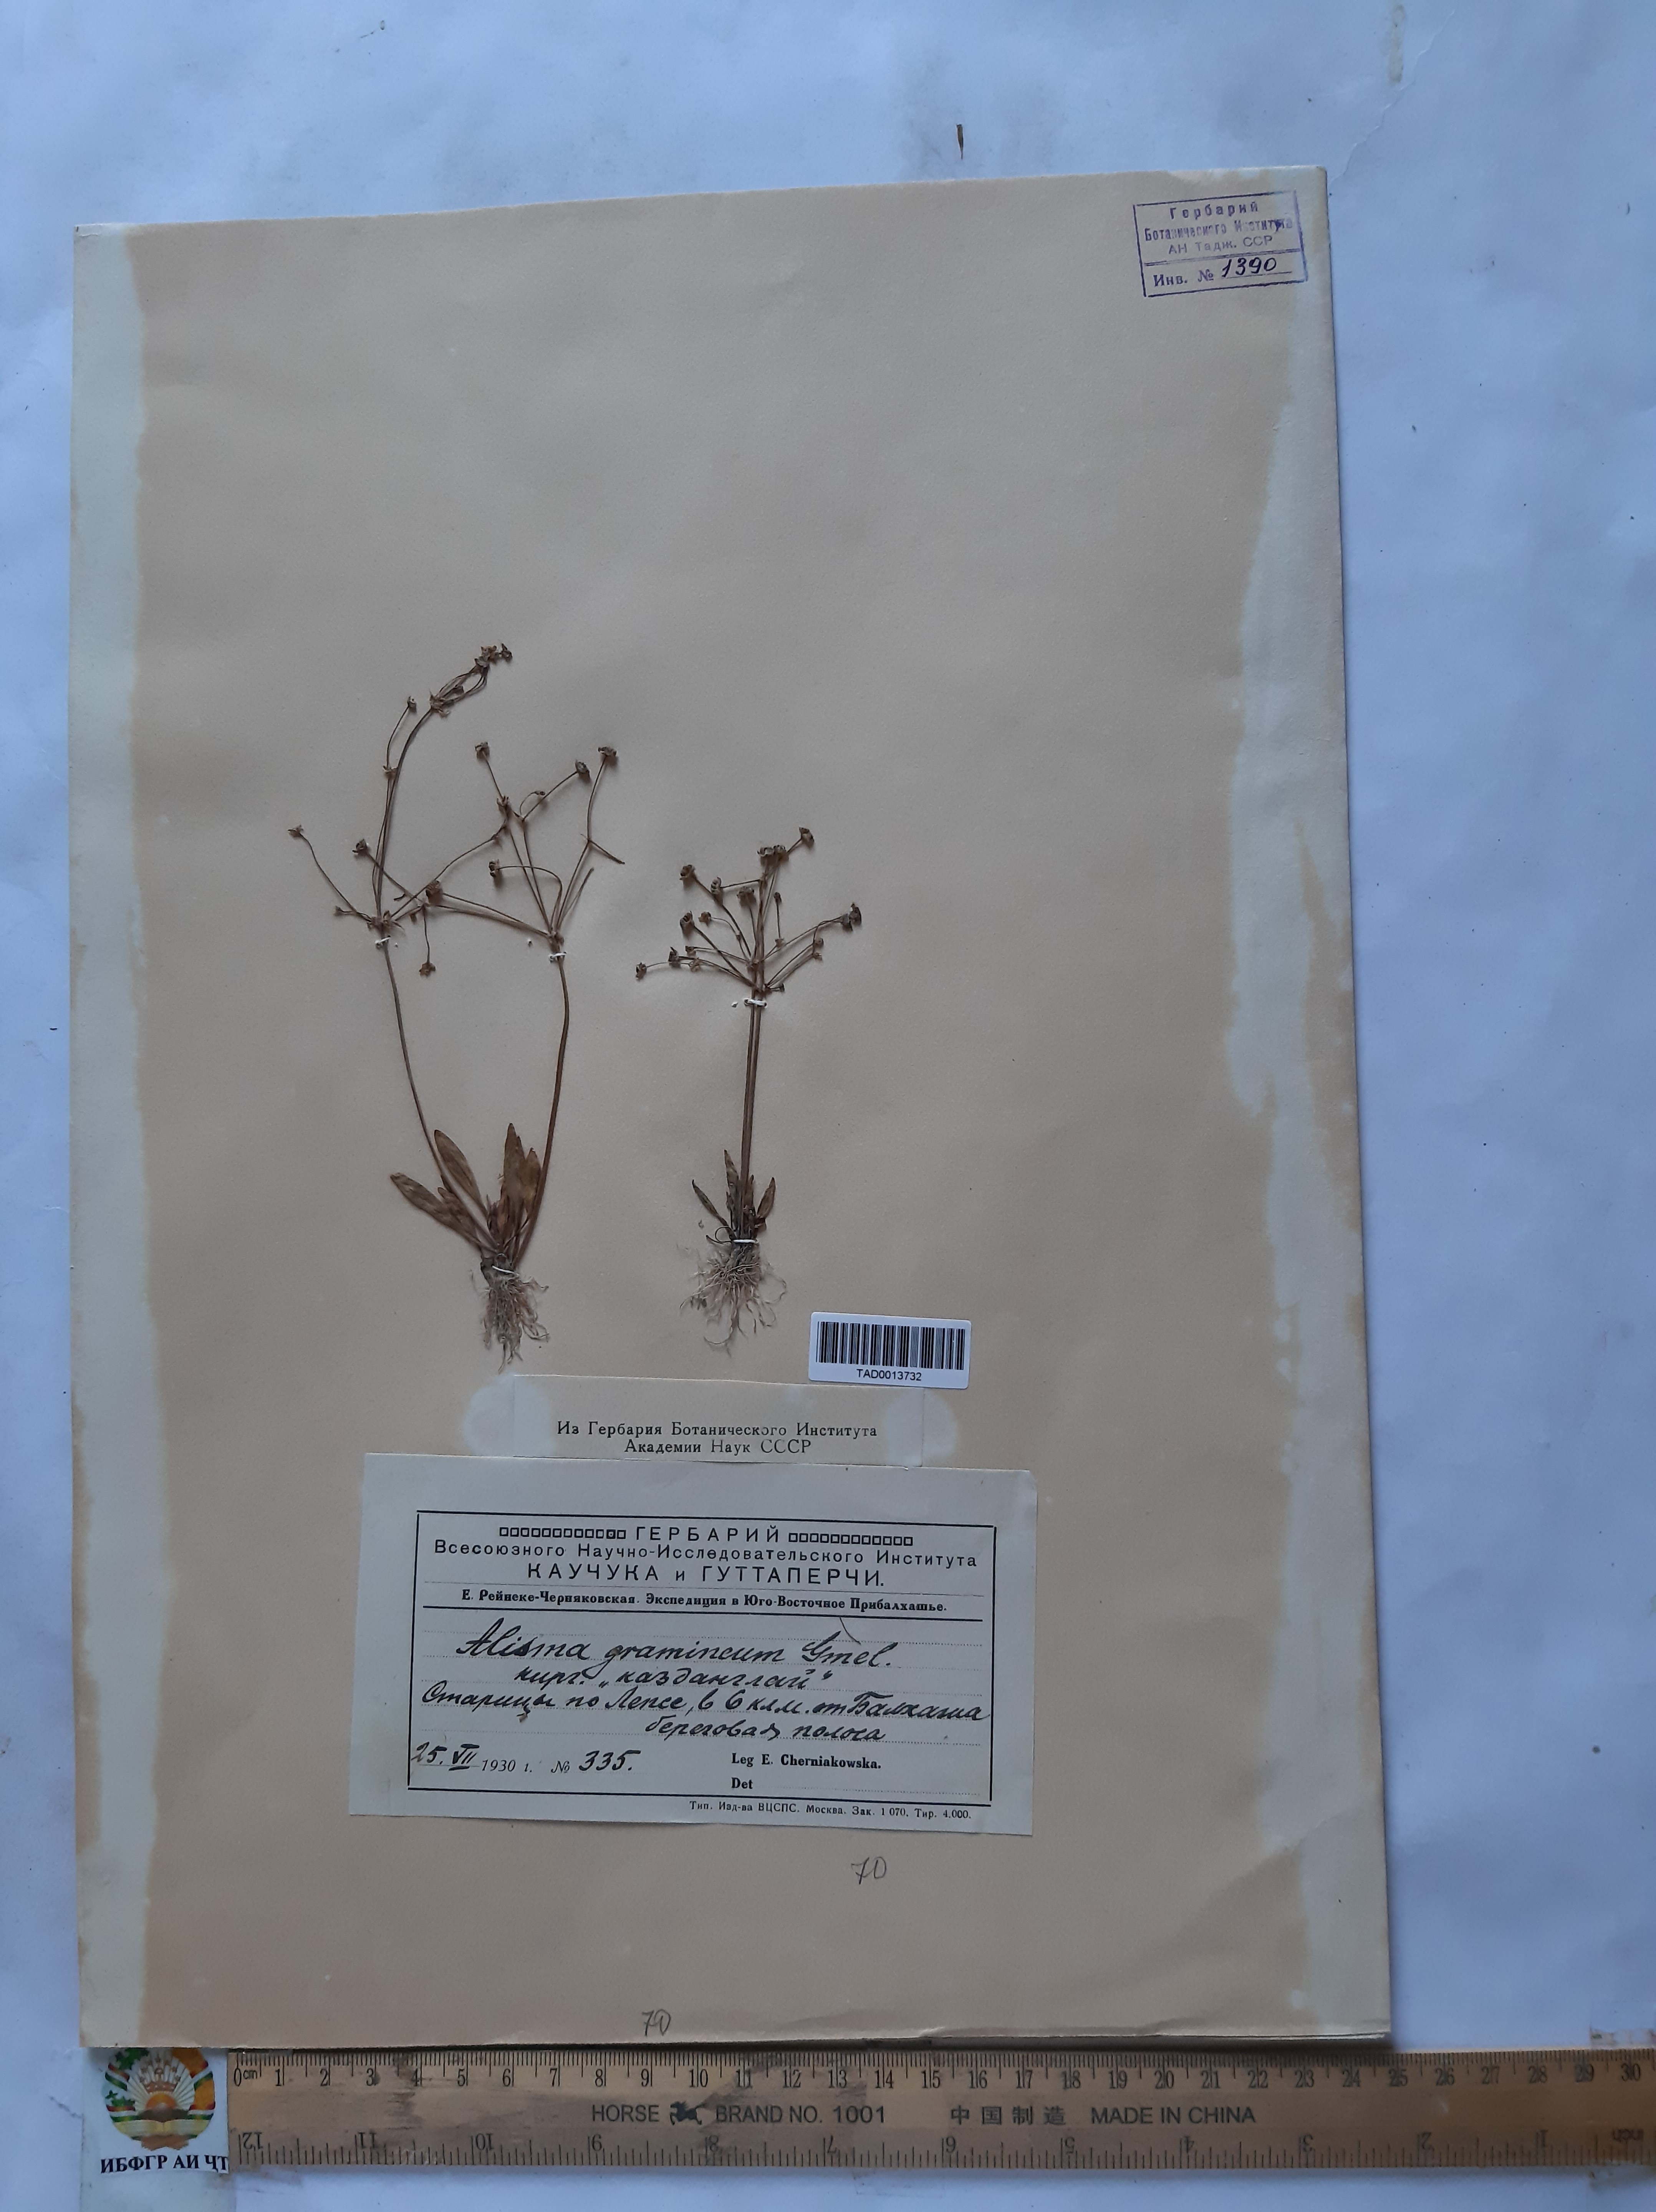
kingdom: Plantae
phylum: Tracheophyta
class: Liliopsida
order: Alismatales
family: Alismataceae
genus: Alisma
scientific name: Alisma gramineum
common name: Ribbon-leaved water-plantain
